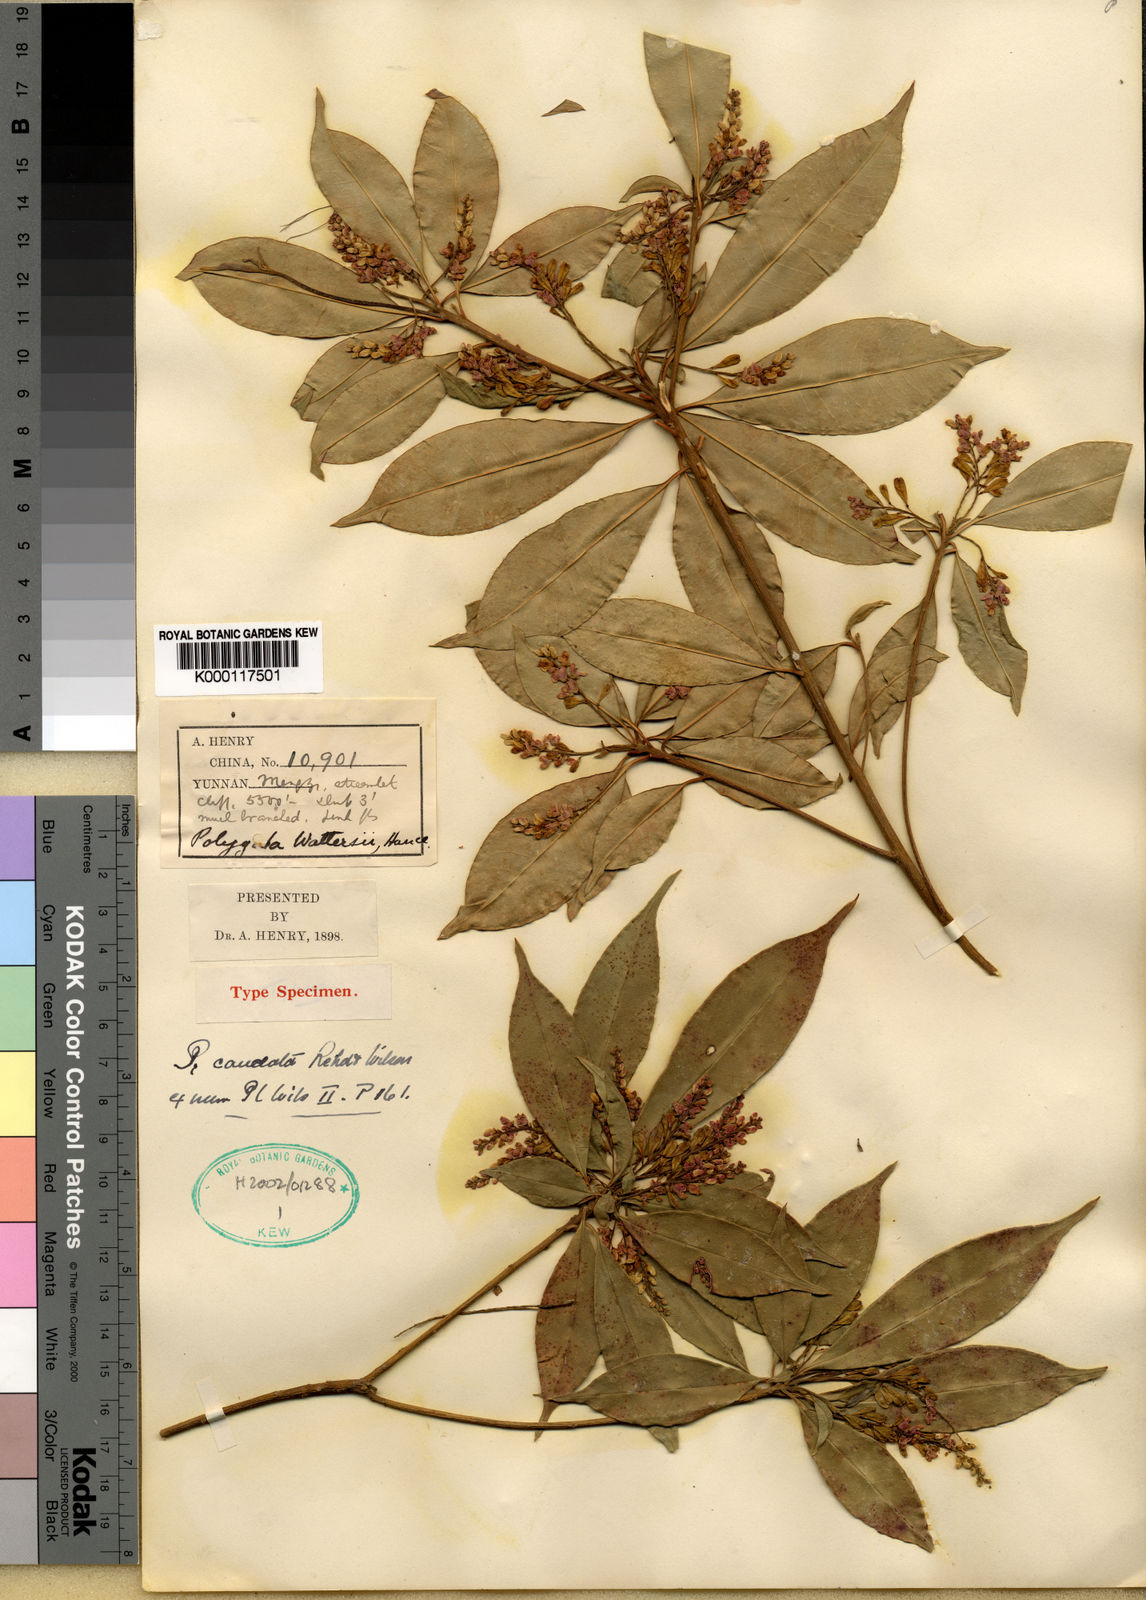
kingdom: Plantae
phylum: Tracheophyta
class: Magnoliopsida
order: Fabales
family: Polygalaceae
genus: Polygala
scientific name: Polygala caudata
